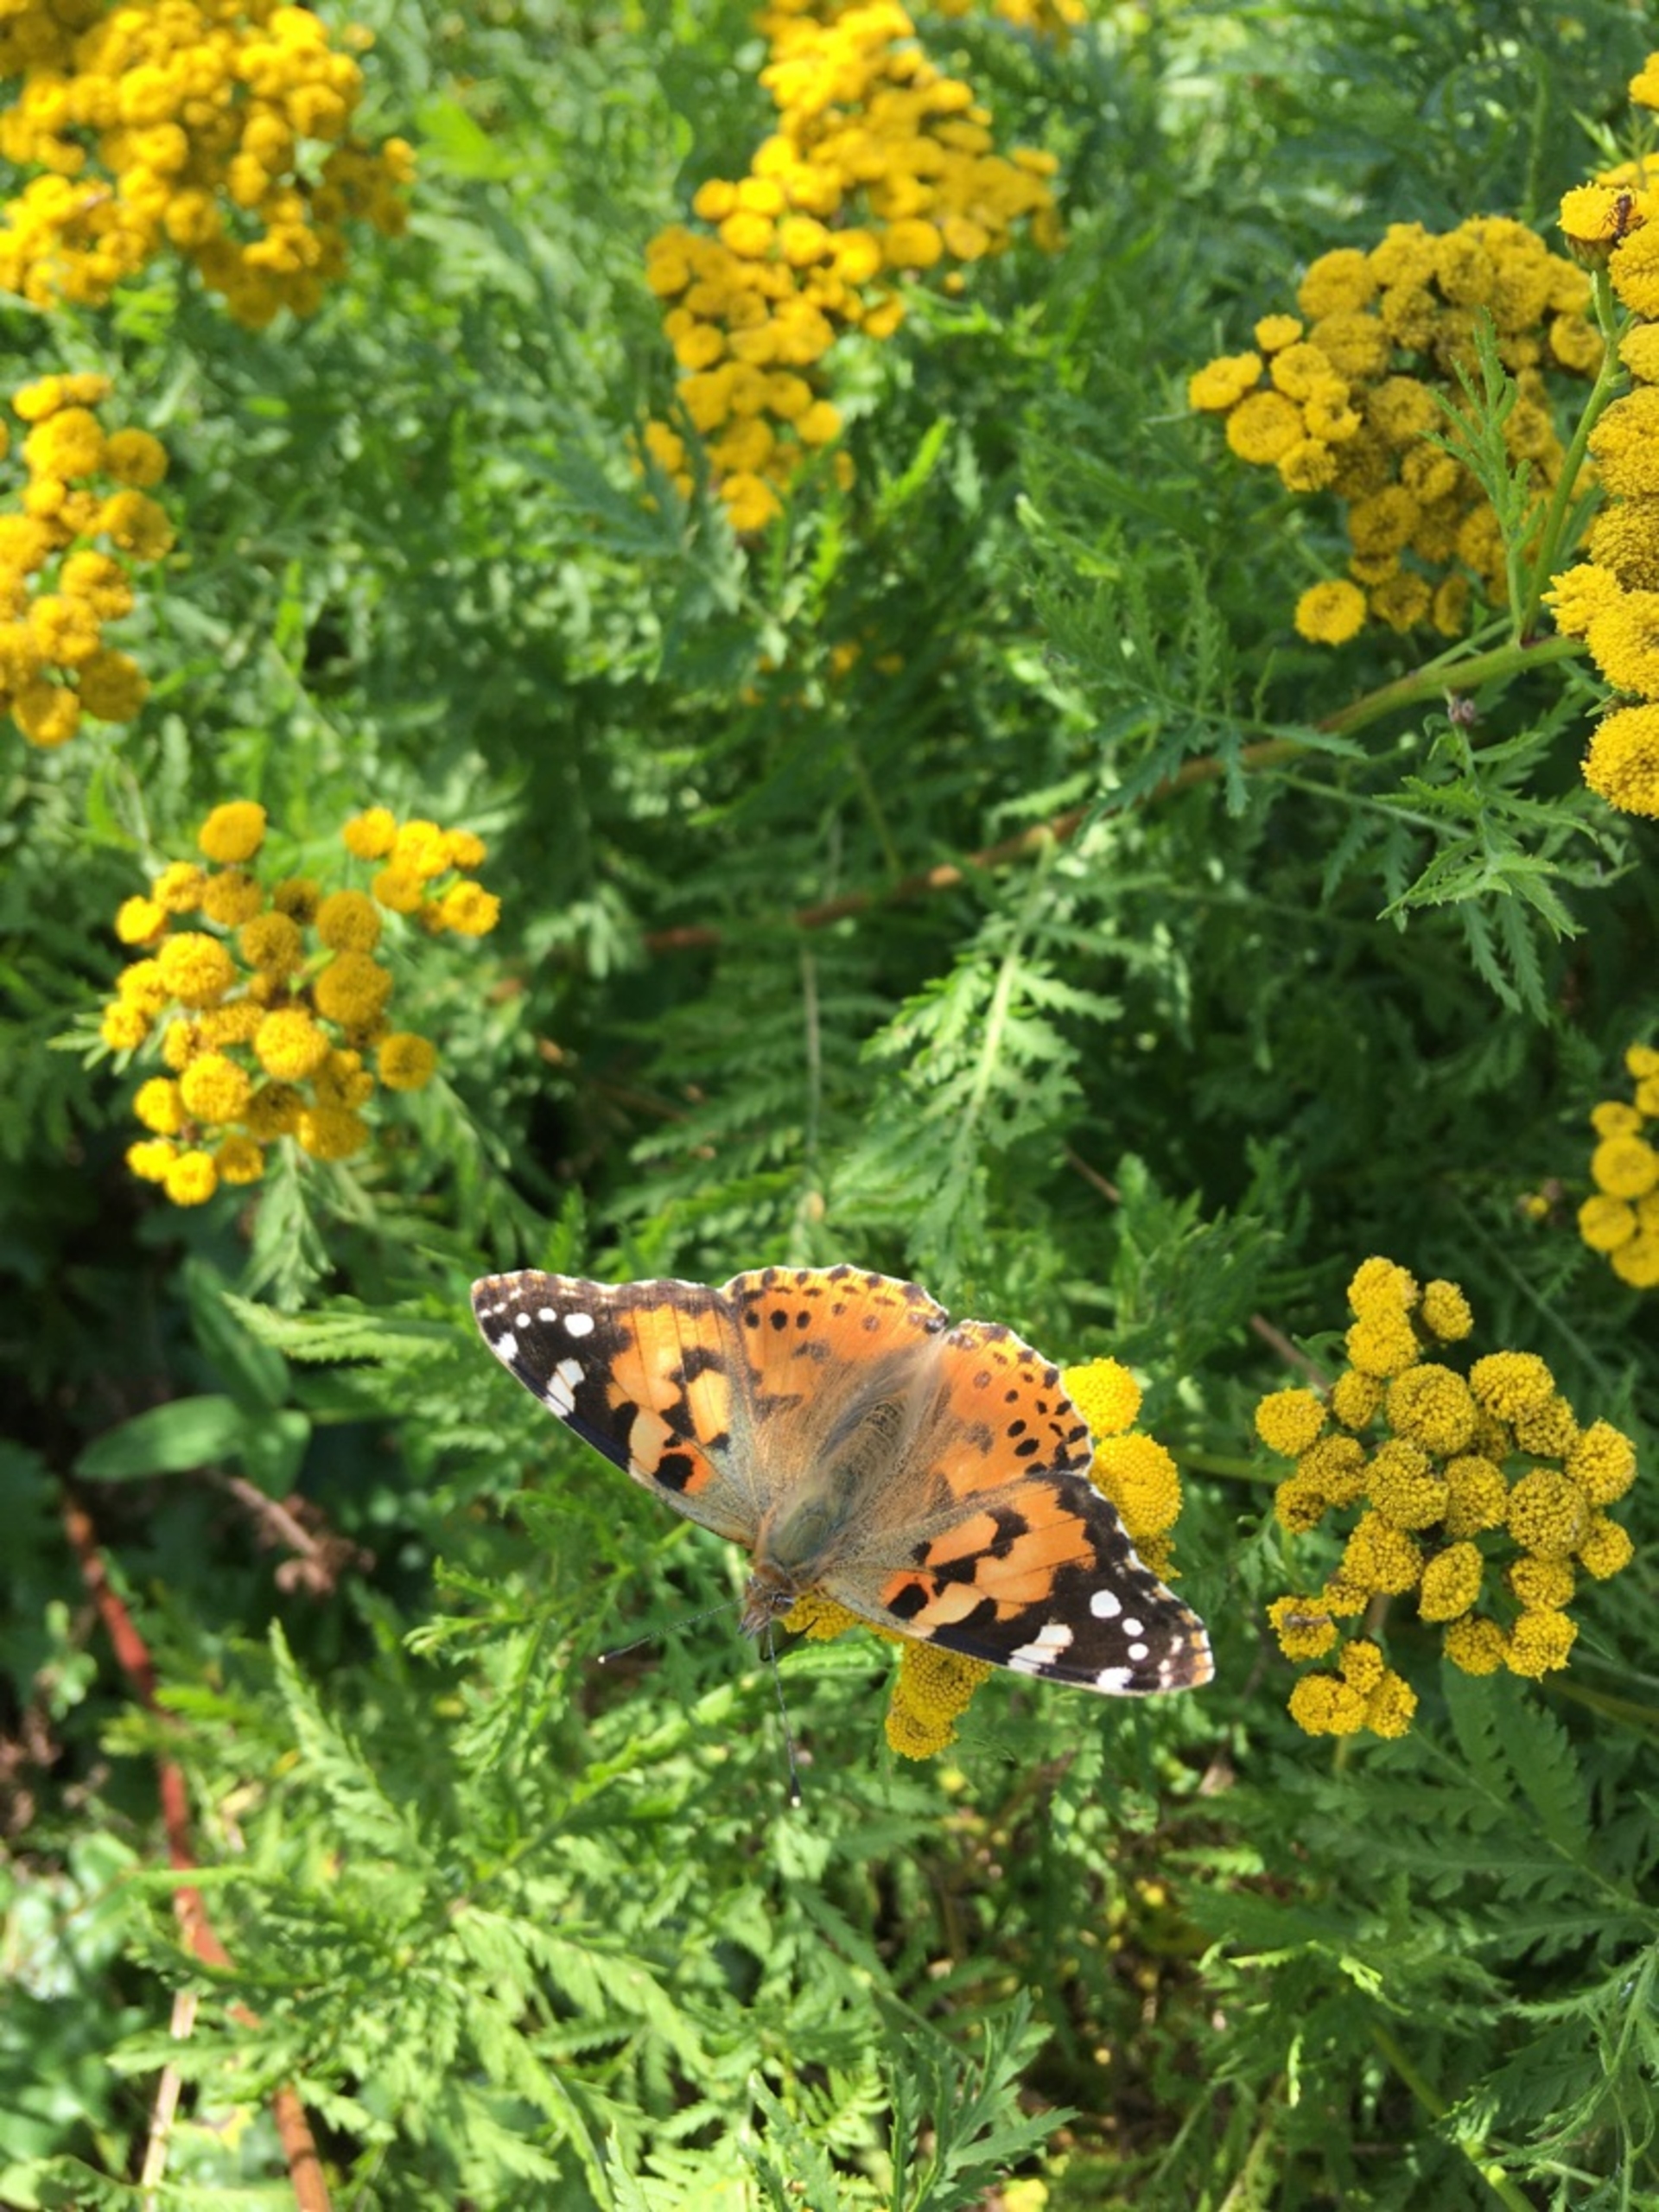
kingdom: Animalia
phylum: Arthropoda
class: Insecta
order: Lepidoptera
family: Nymphalidae
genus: Vanessa
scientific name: Vanessa cardui
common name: Tidselsommerfugl
